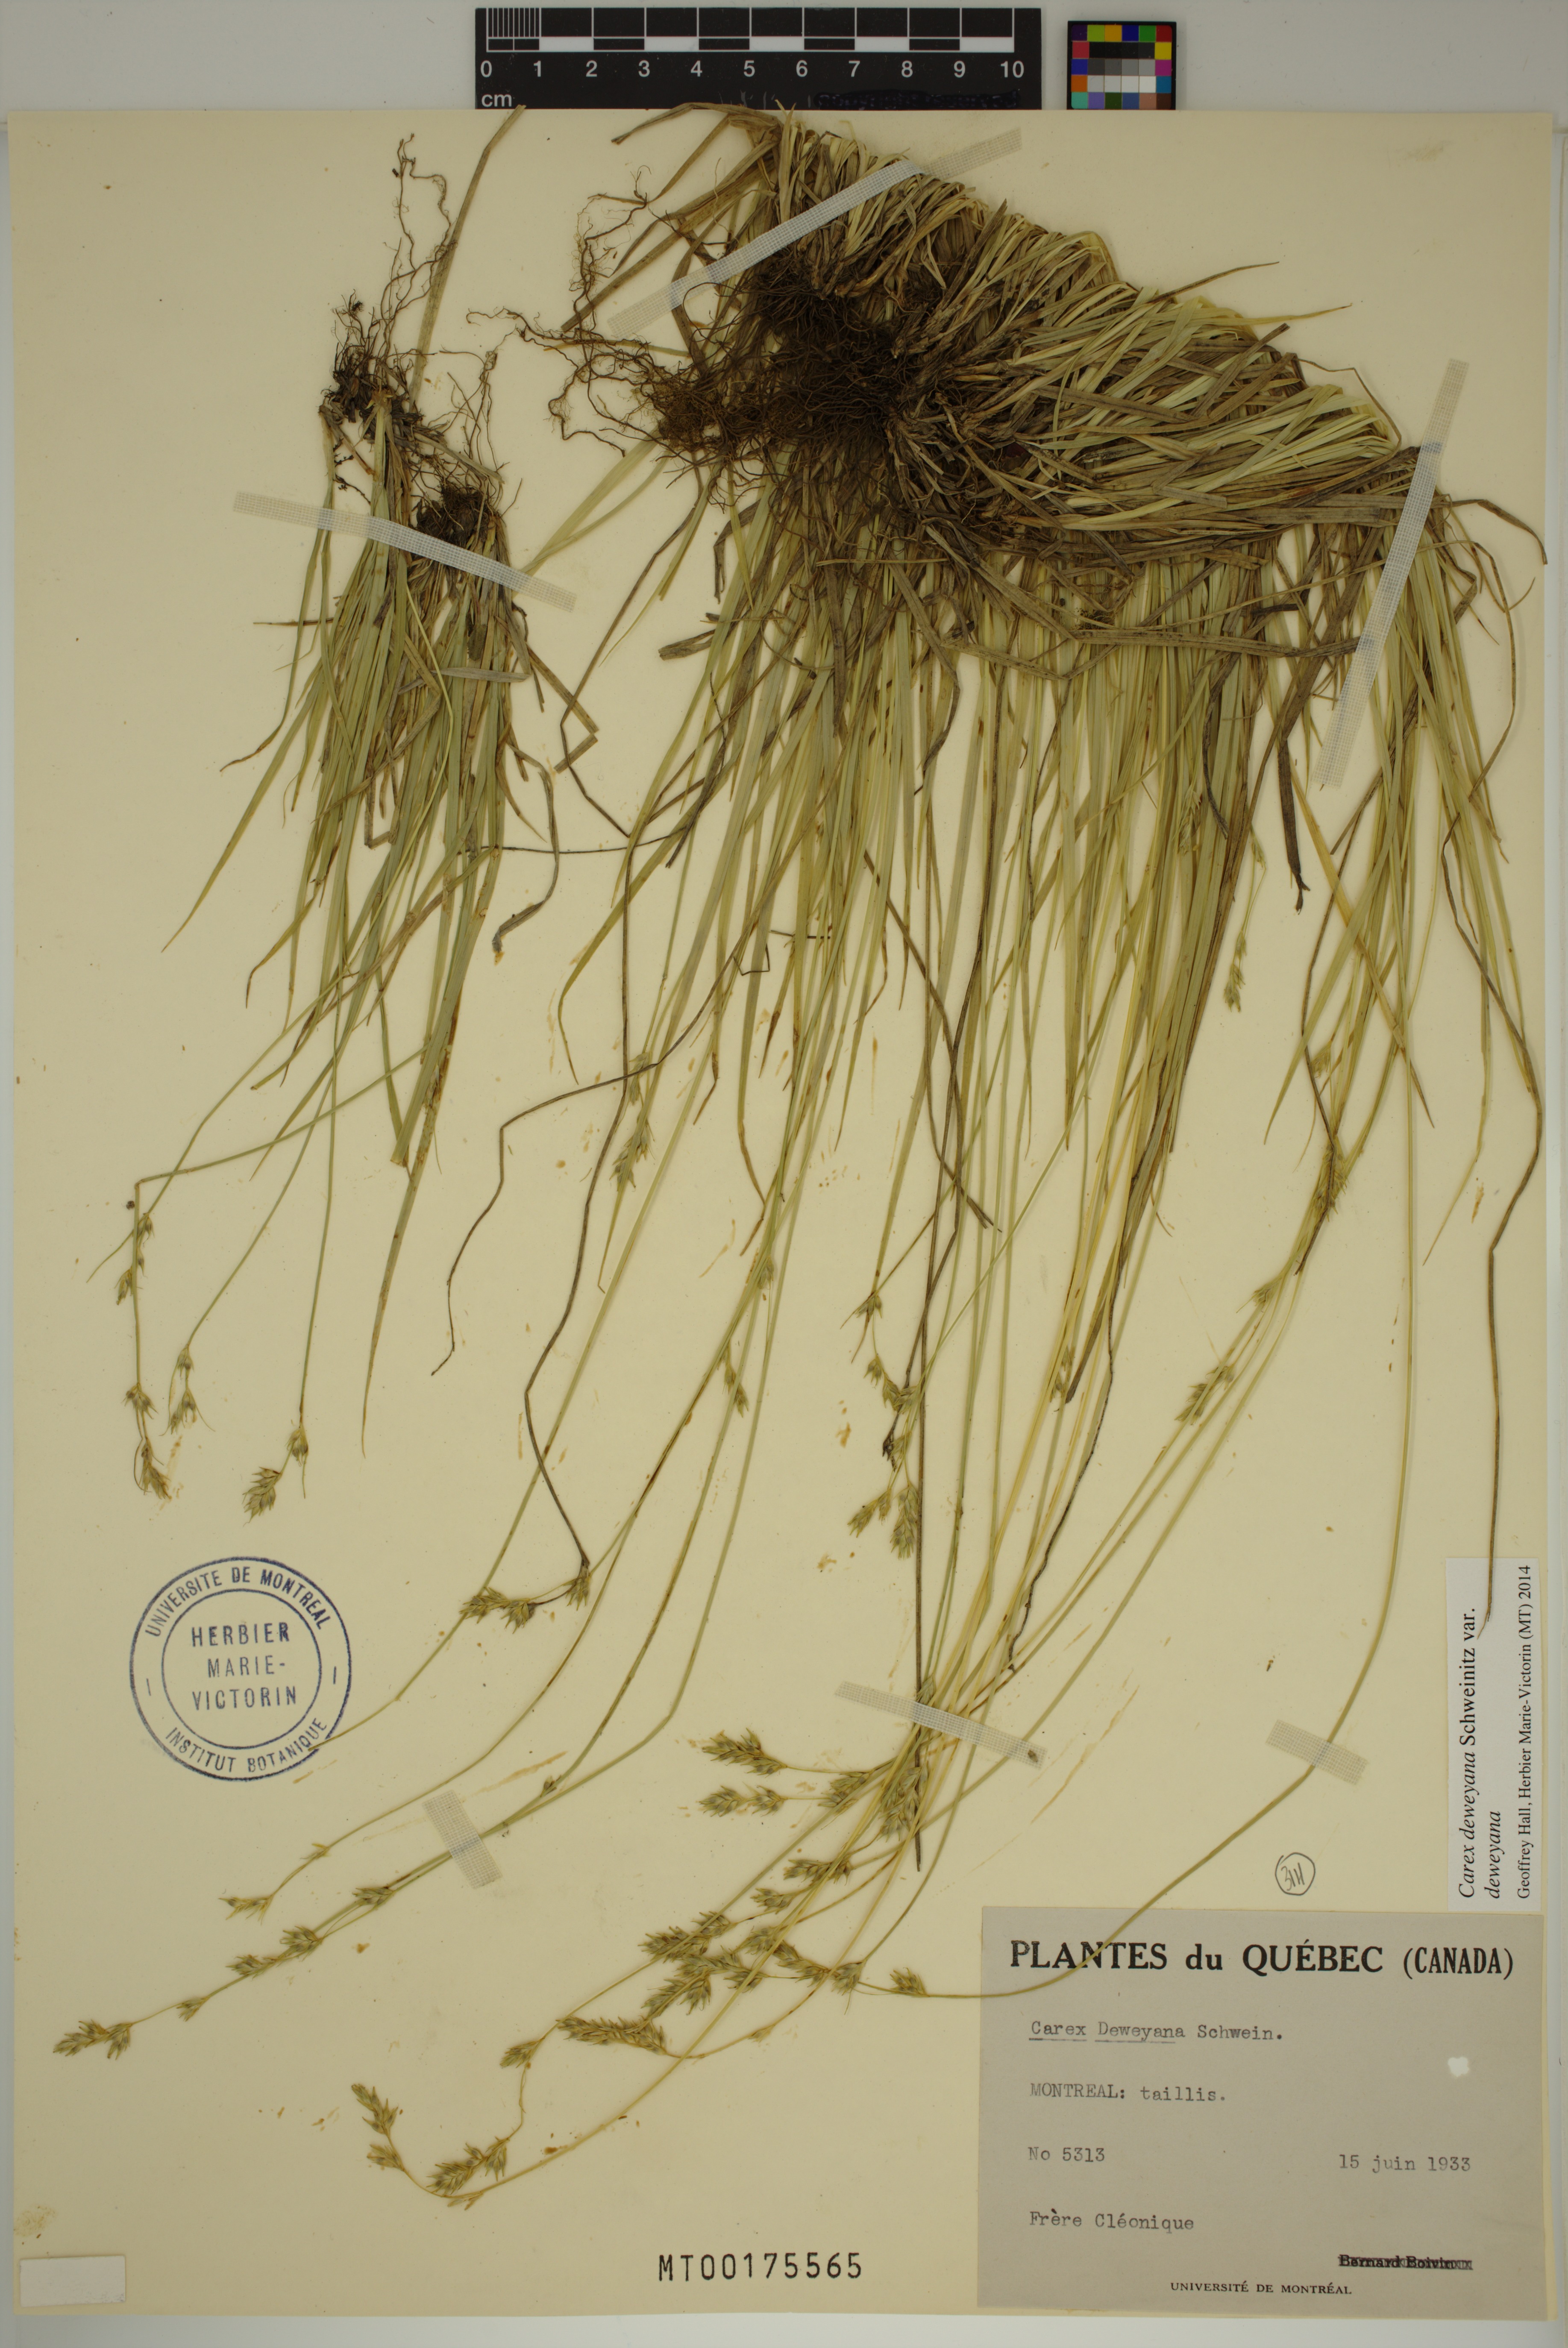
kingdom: Plantae
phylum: Tracheophyta
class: Liliopsida
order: Poales
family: Cyperaceae
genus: Carex
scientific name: Carex deweyana
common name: Dewey's sedge
